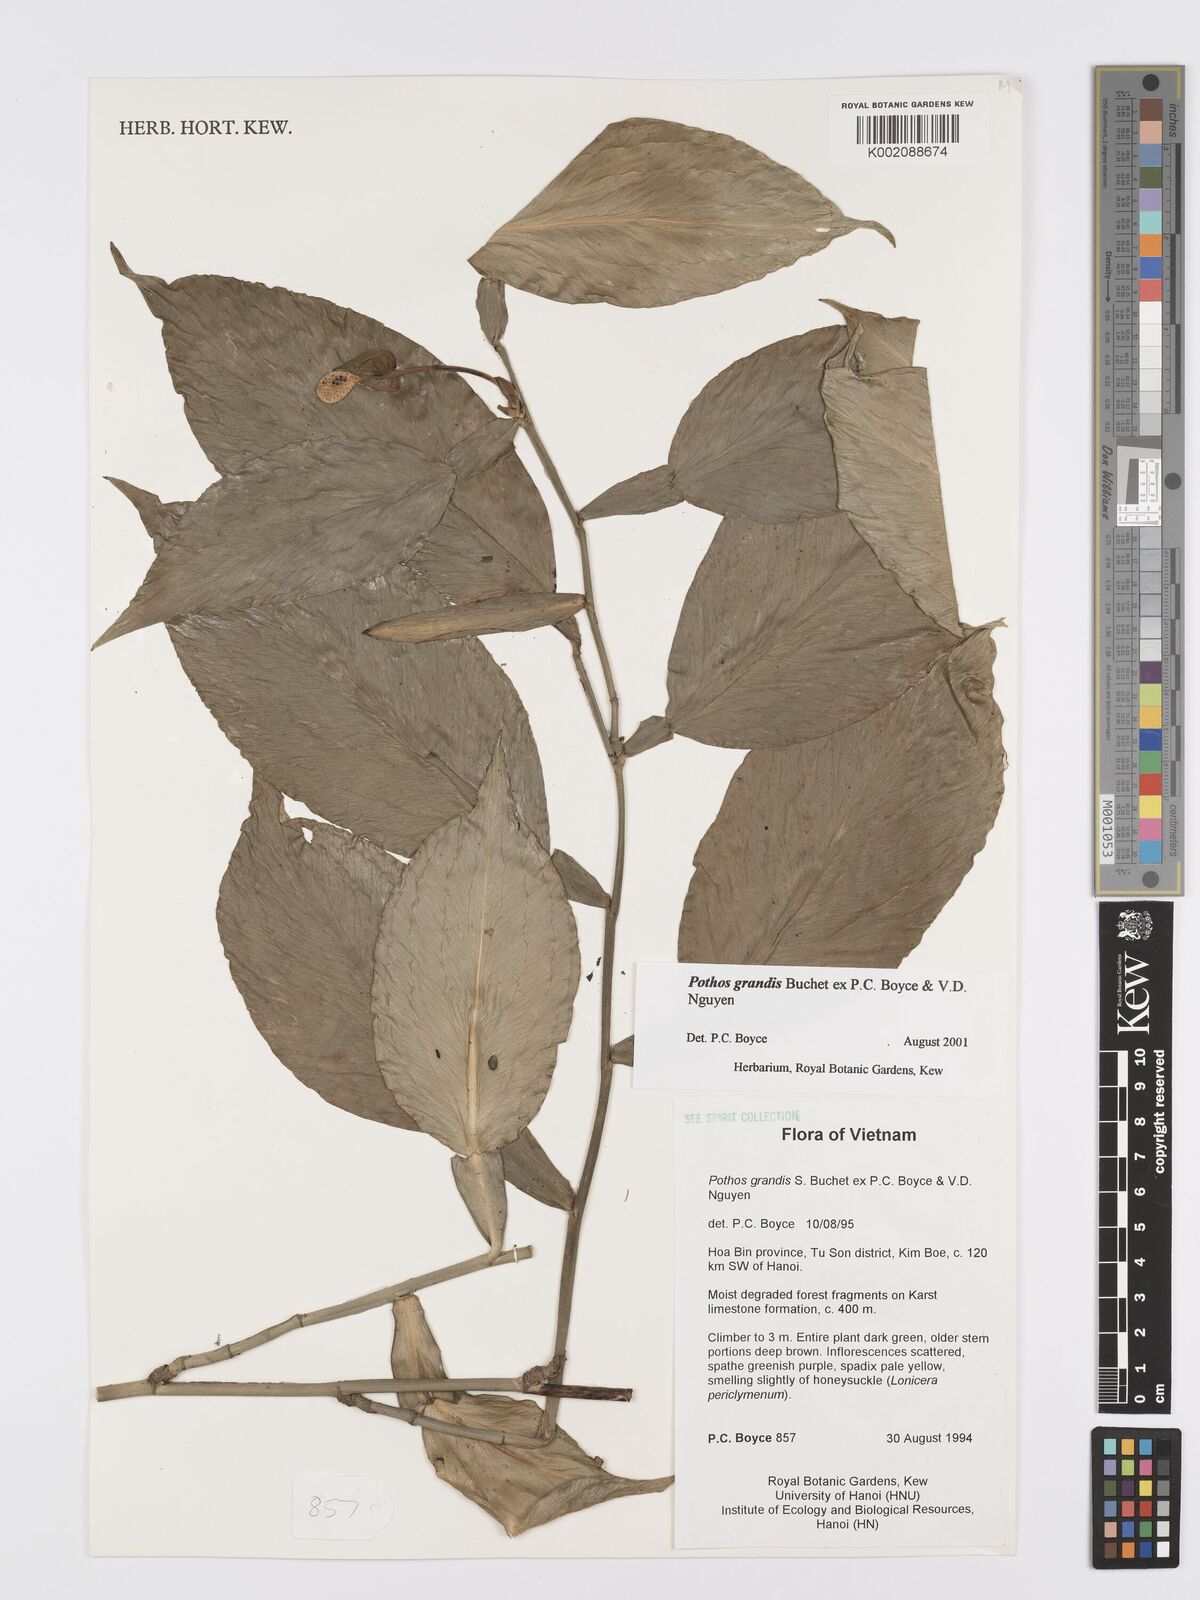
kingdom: Plantae
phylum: Tracheophyta
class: Liliopsida
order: Alismatales
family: Araceae
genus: Pothos
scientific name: Pothos grandis
